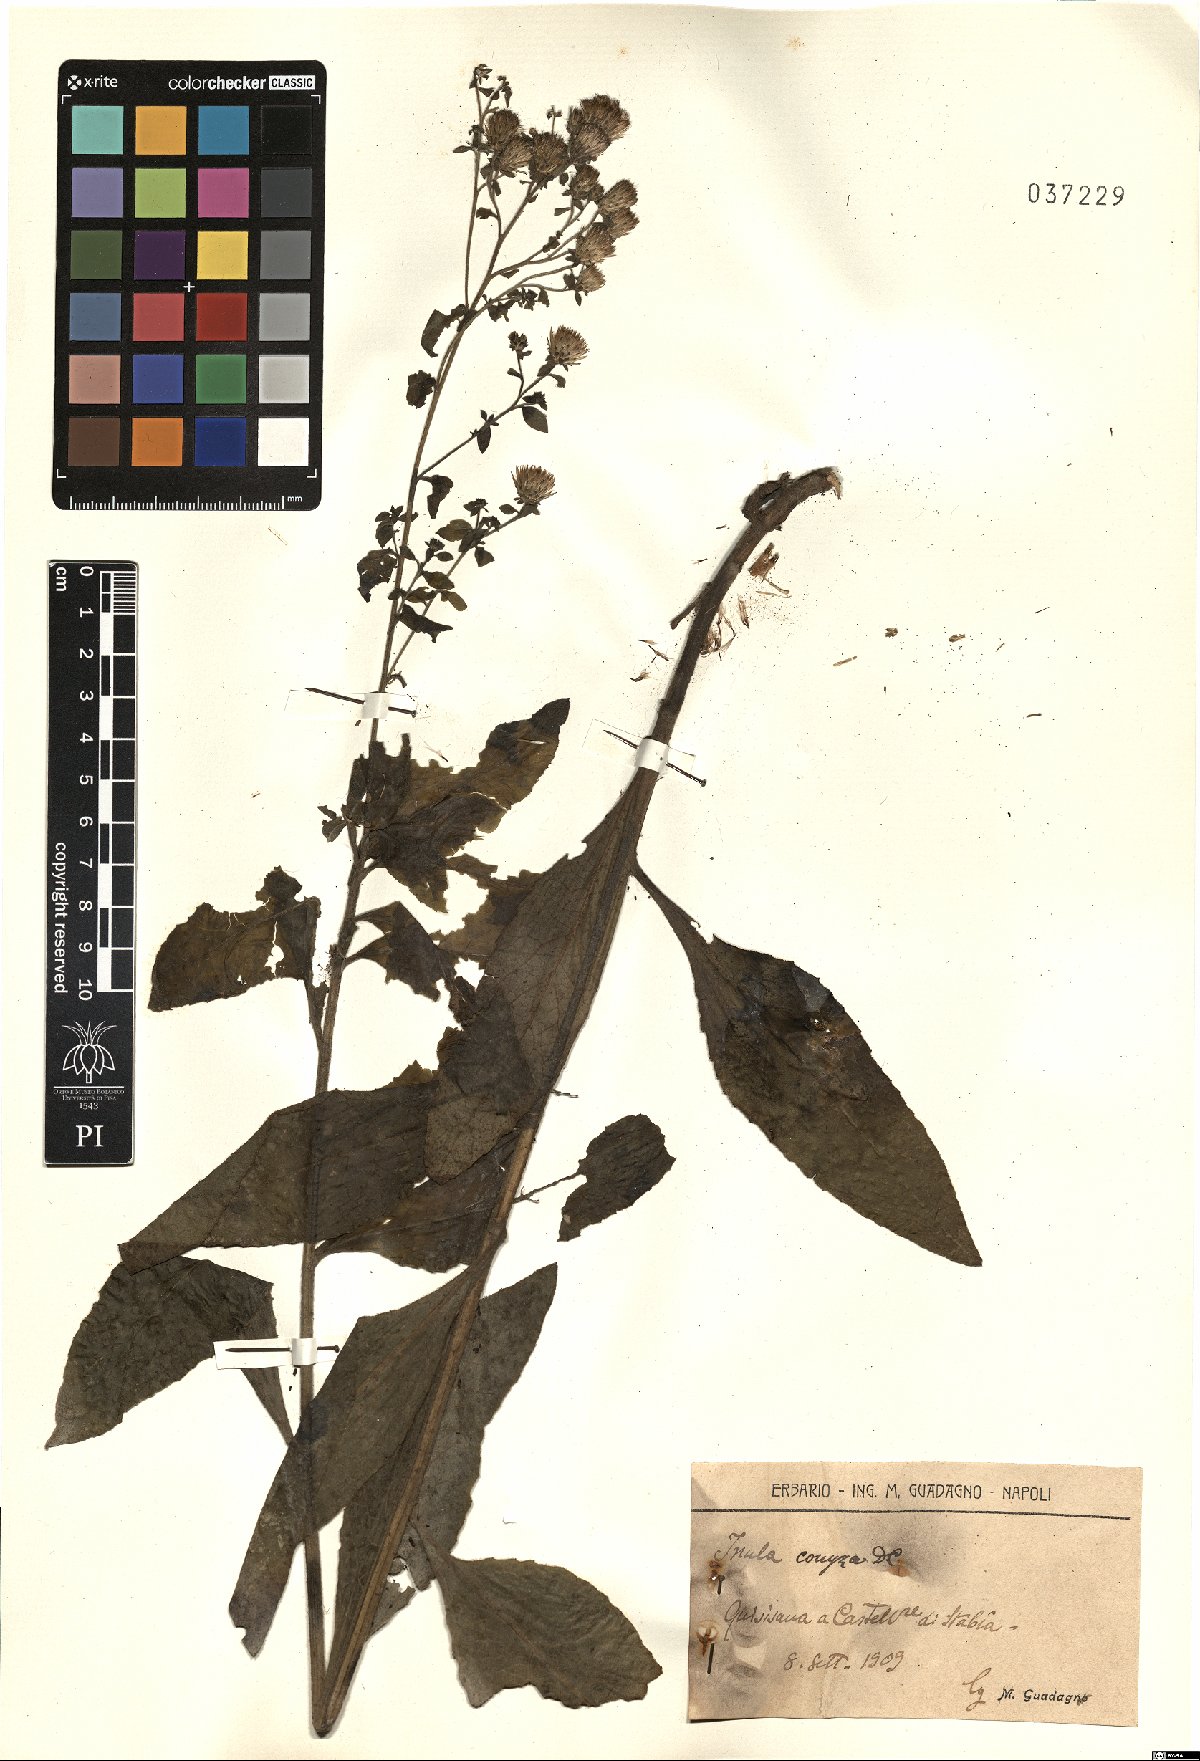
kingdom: Plantae
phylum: Tracheophyta
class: Magnoliopsida
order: Asterales
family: Asteraceae
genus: Pentanema
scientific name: Pentanema squarrosum
